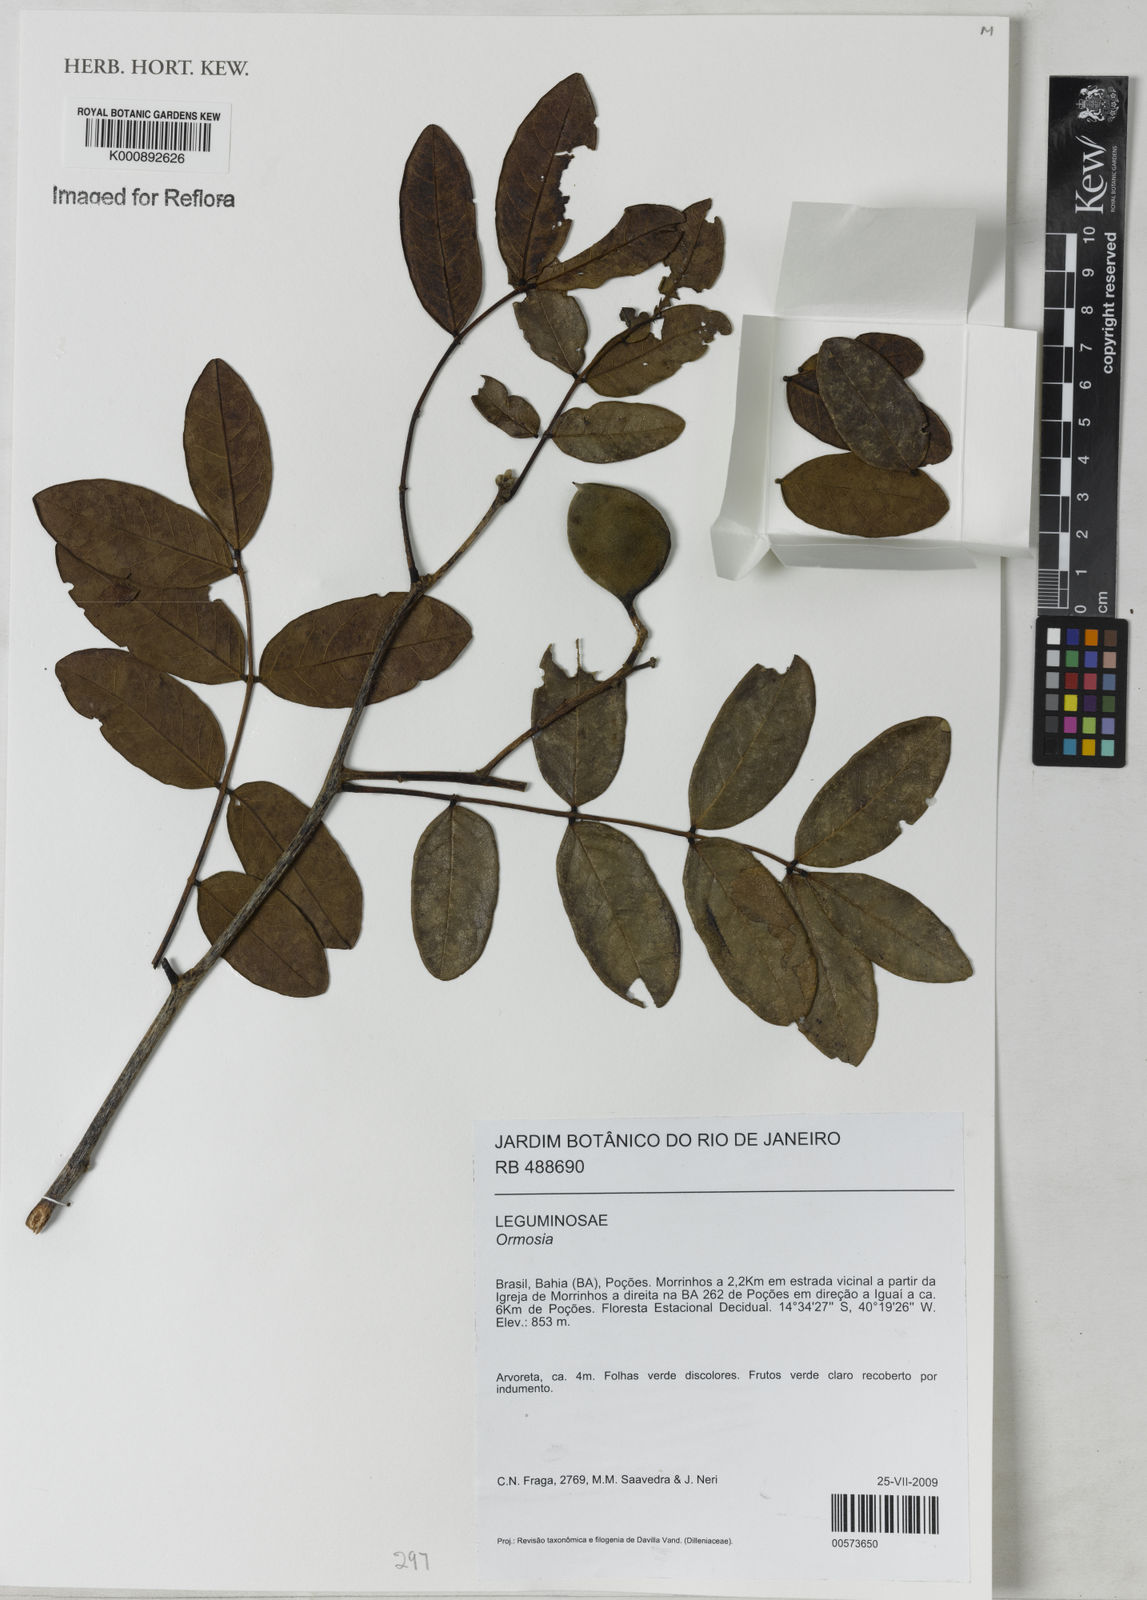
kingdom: Plantae
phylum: Tracheophyta
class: Magnoliopsida
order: Fabales
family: Fabaceae
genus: Ormosia
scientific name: Ormosia
